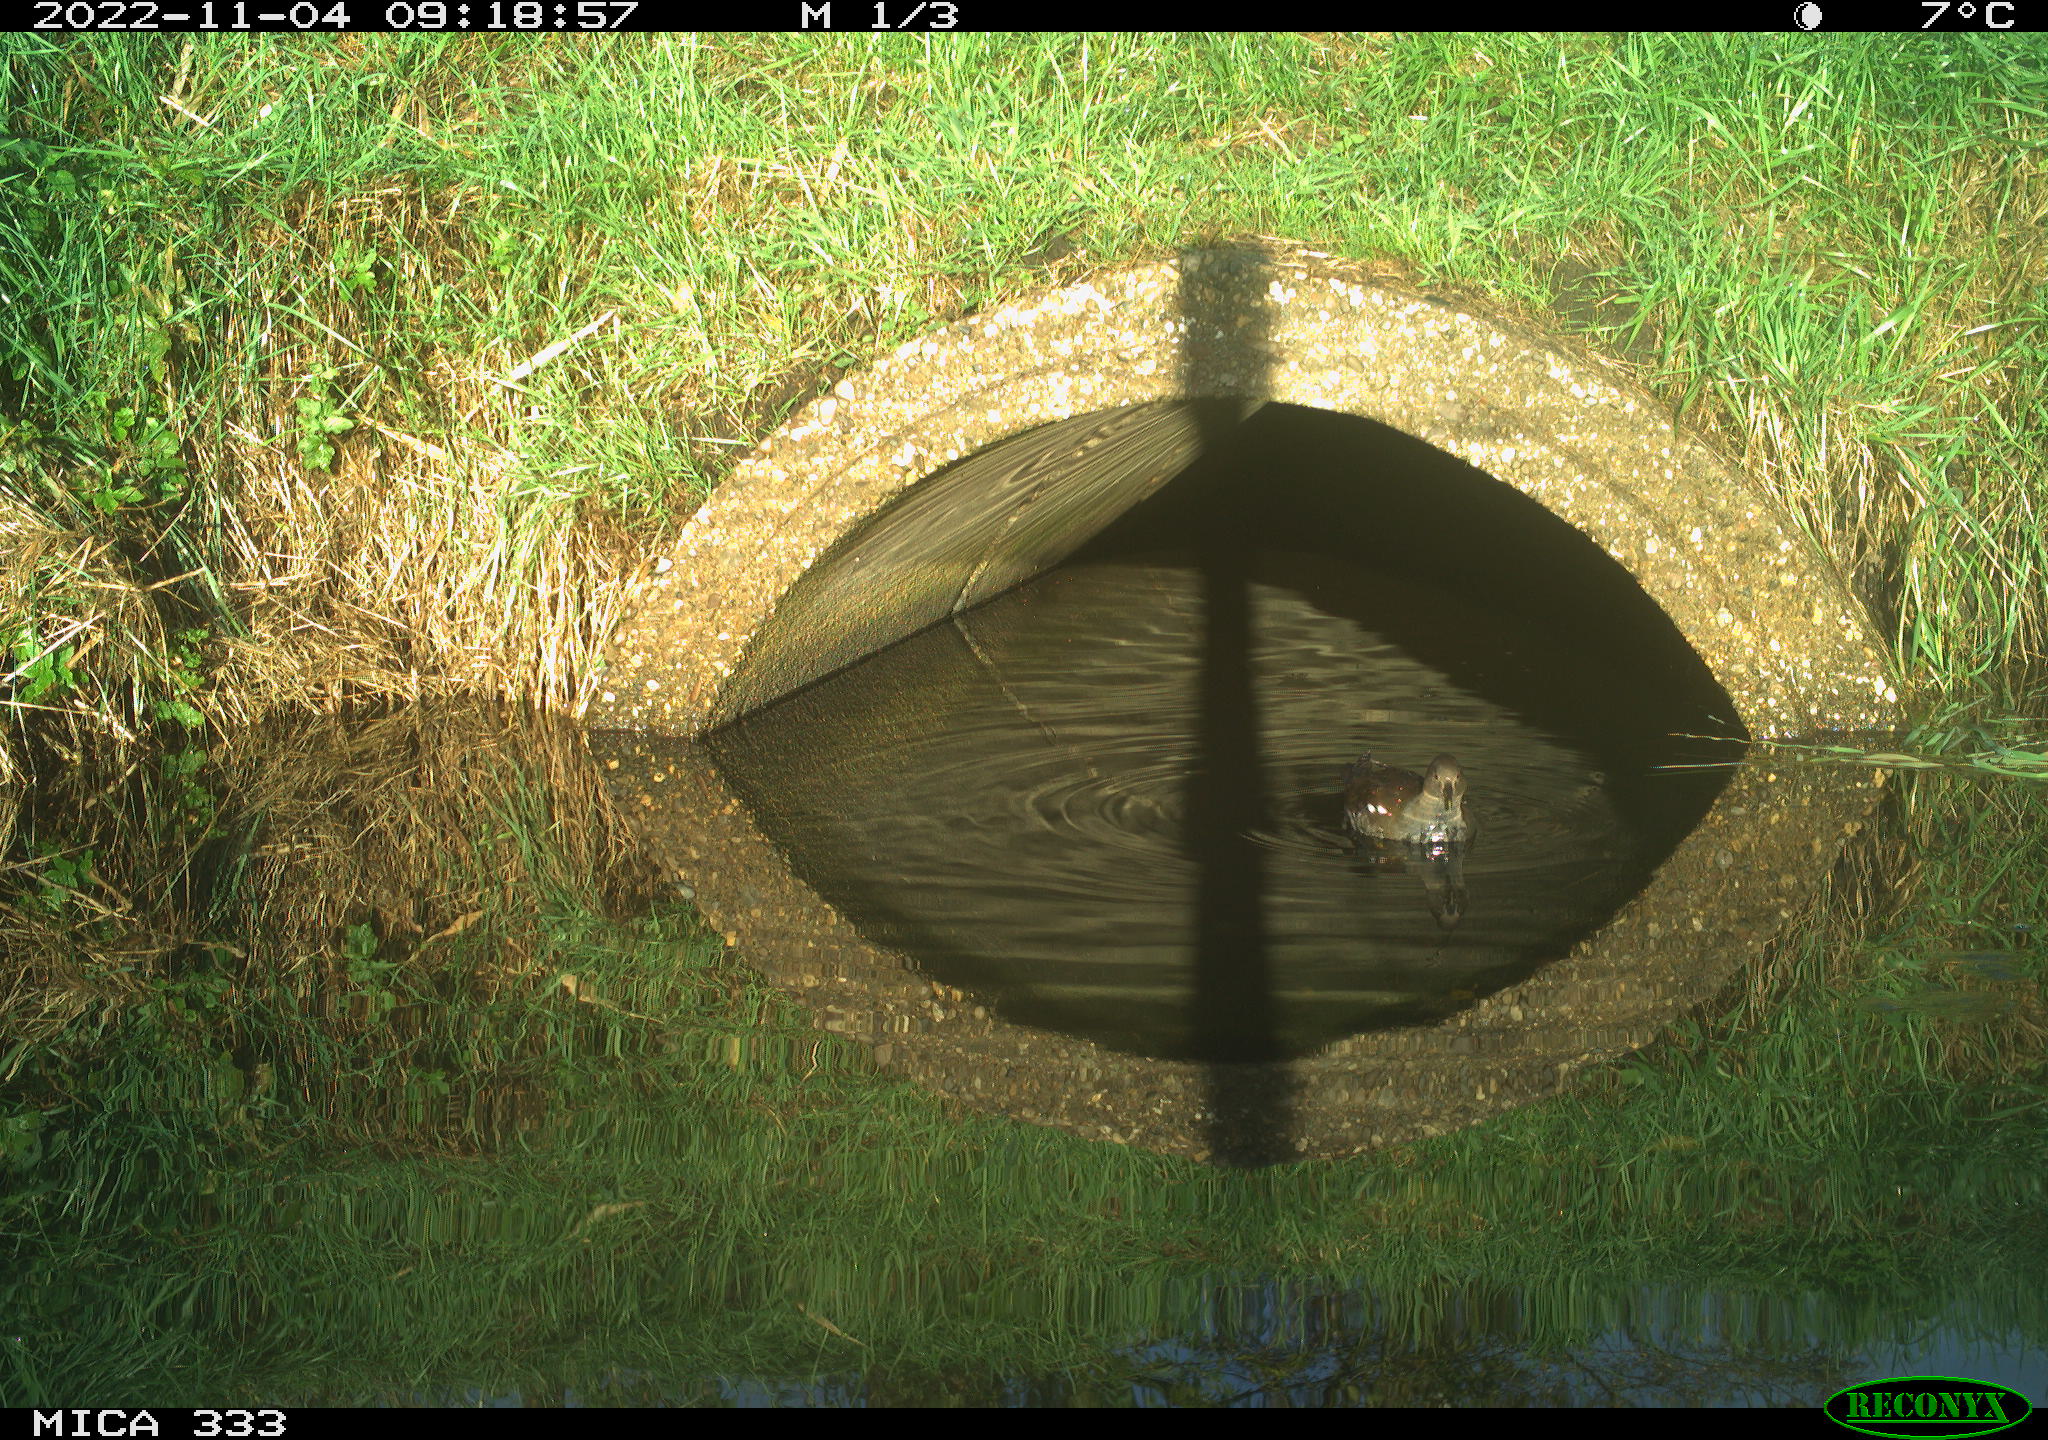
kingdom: Animalia
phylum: Chordata
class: Aves
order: Gruiformes
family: Rallidae
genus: Gallinula
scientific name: Gallinula chloropus
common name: Common moorhen
